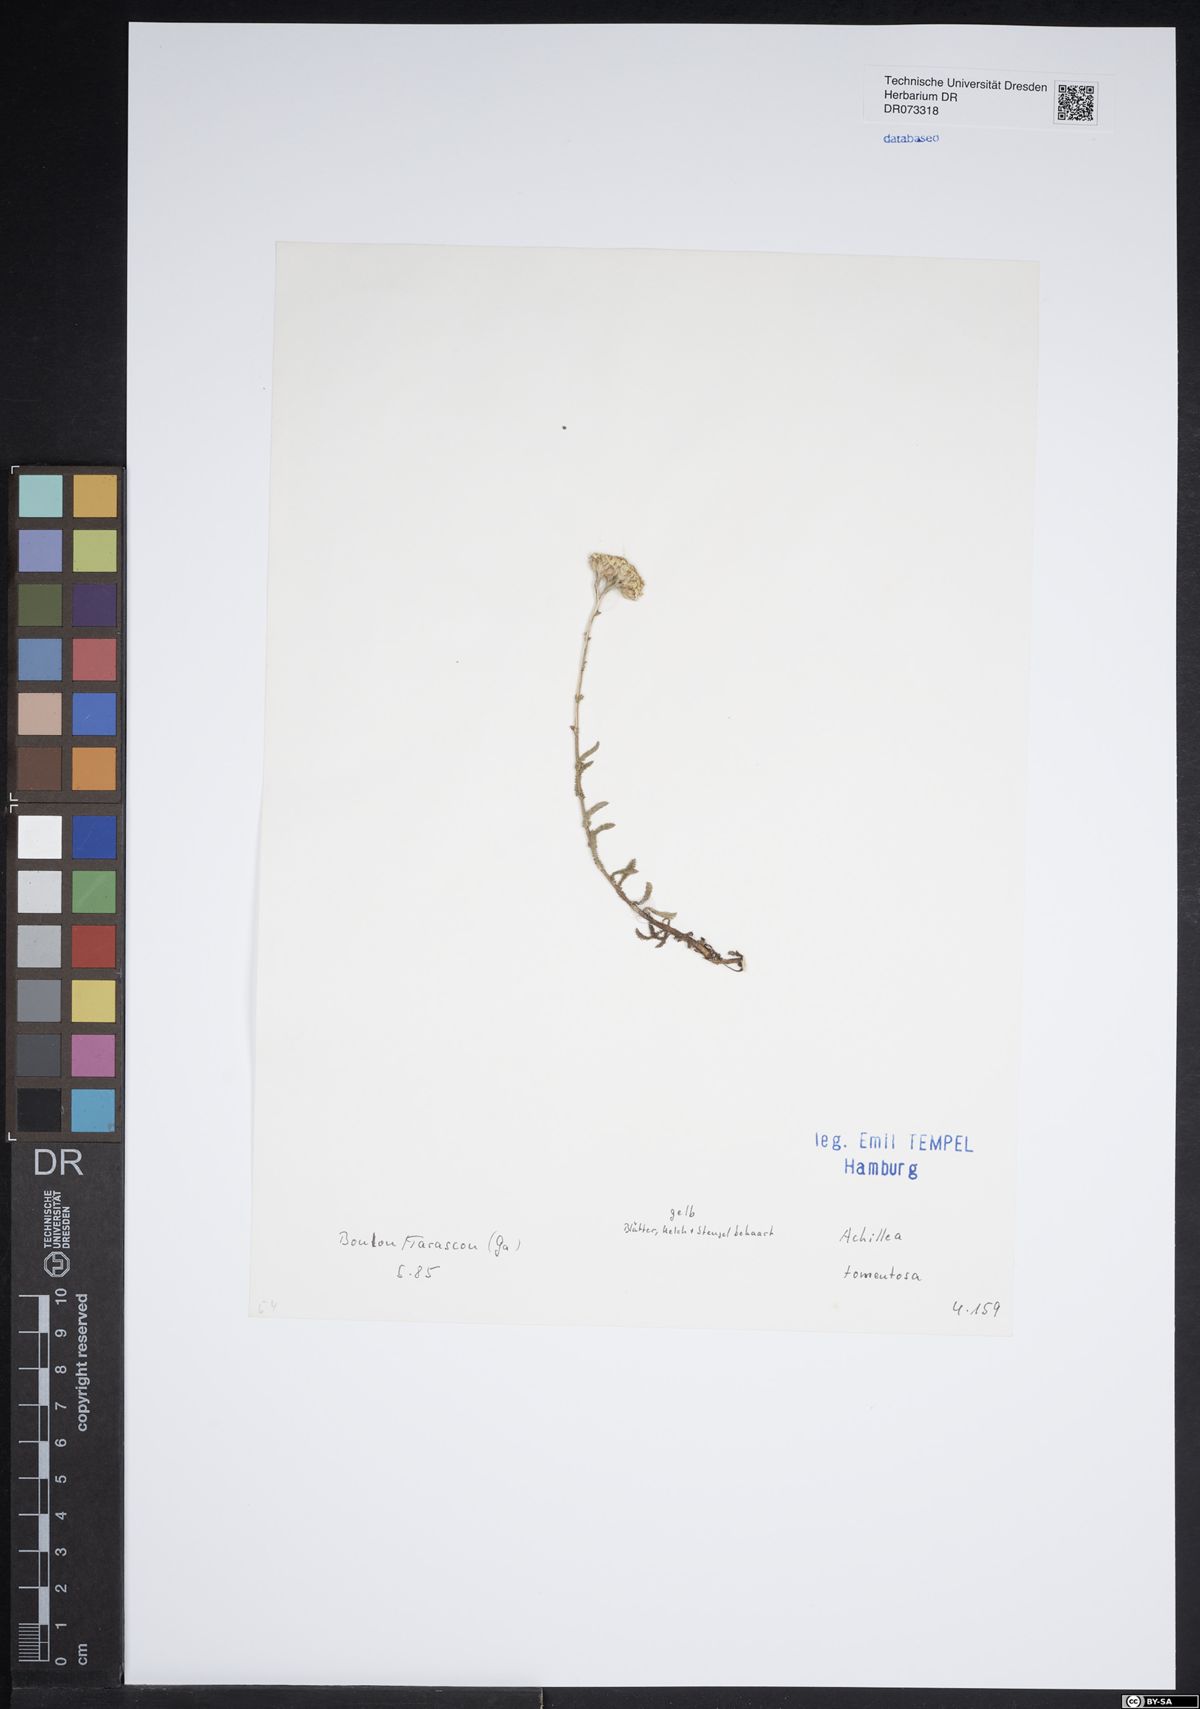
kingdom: Plantae
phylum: Tracheophyta
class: Magnoliopsida
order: Asterales
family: Asteraceae
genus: Achillea
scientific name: Achillea tomentosa
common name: Yellow milfoil
